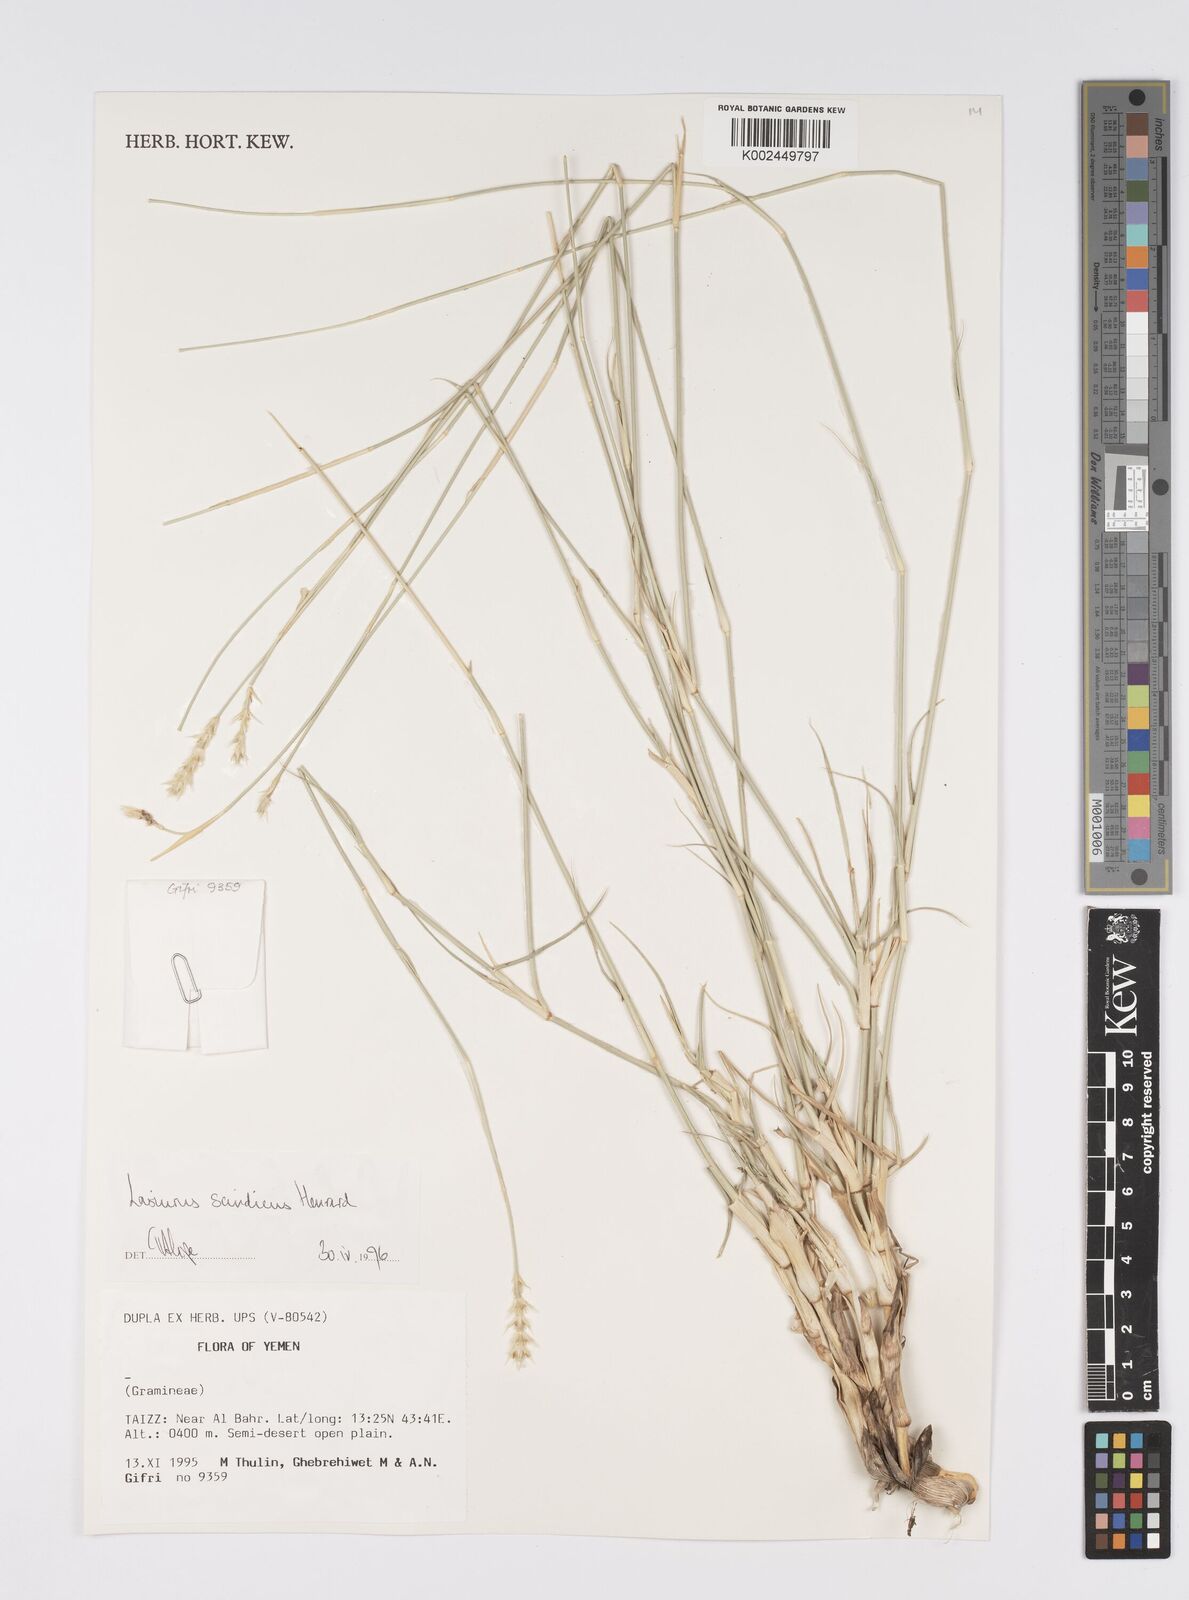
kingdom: Plantae
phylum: Tracheophyta
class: Liliopsida
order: Poales
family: Poaceae
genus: Lasiurus
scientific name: Lasiurus scindicus
